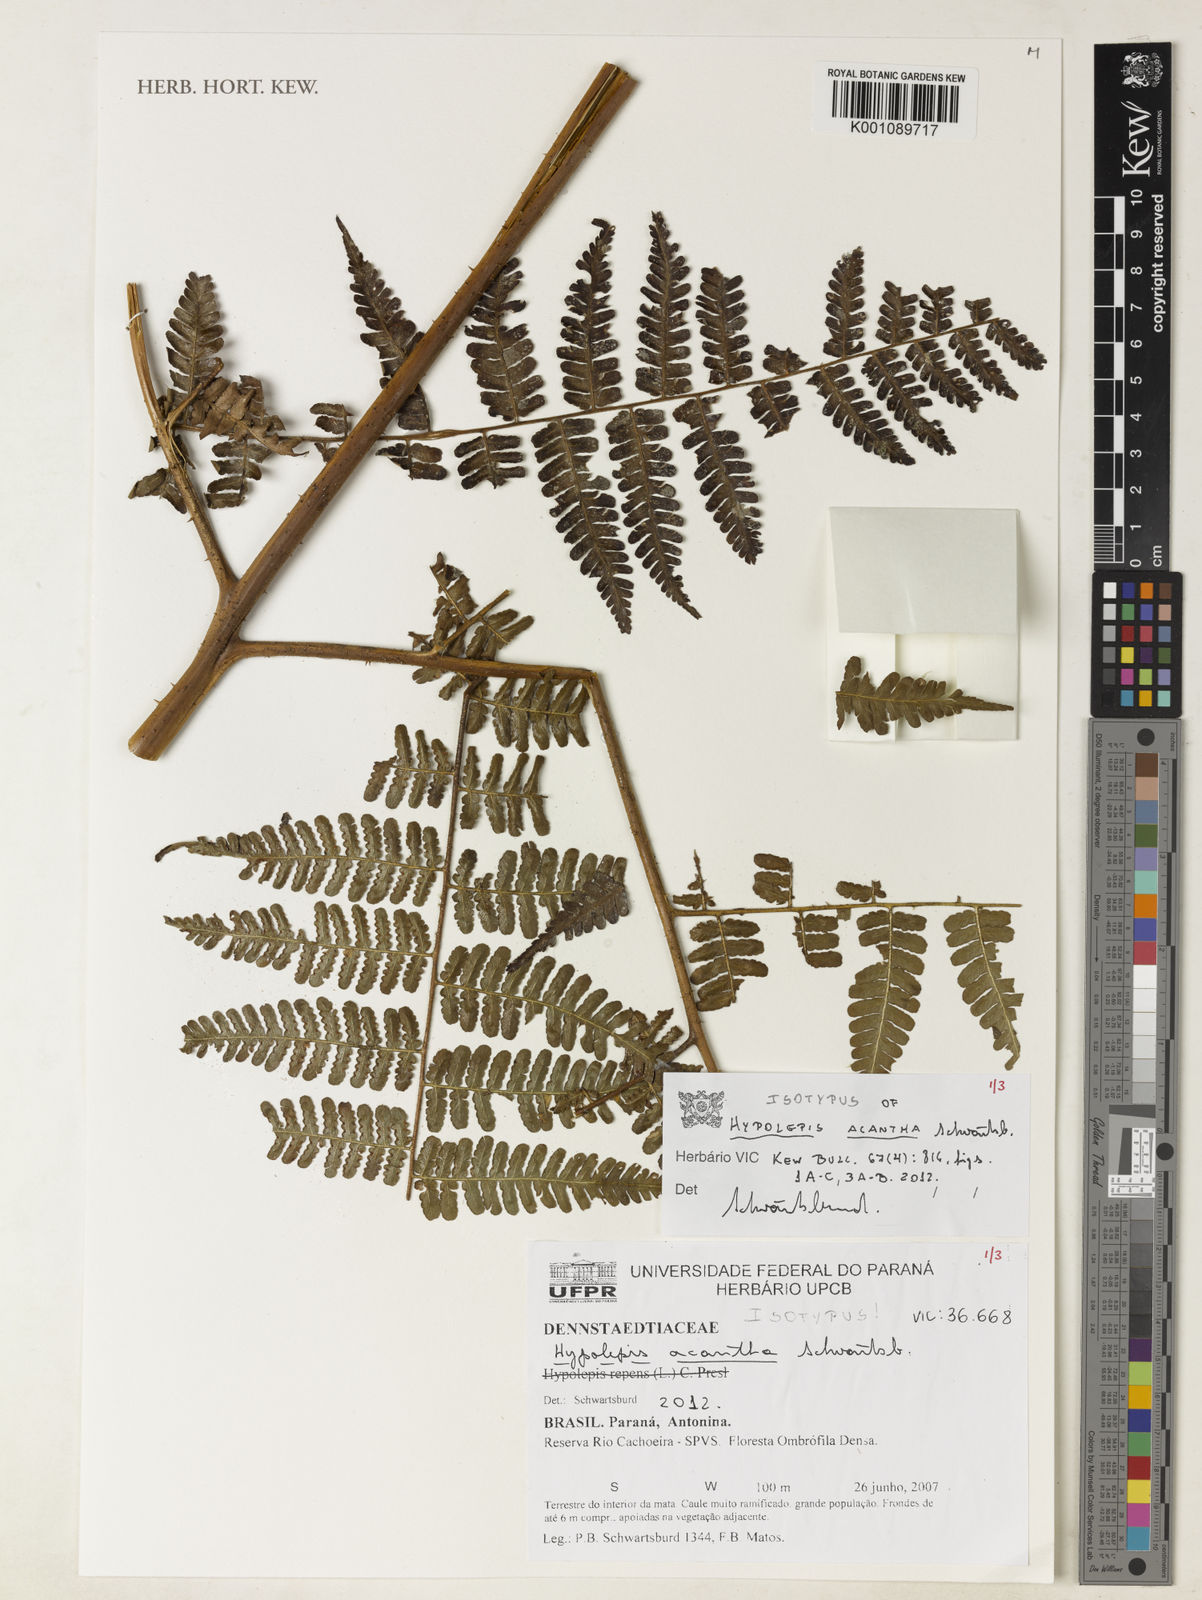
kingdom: Plantae
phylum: Tracheophyta
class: Polypodiopsida
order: Polypodiales
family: Dennstaedtiaceae
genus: Hypolepis
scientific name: Hypolepis acantha
